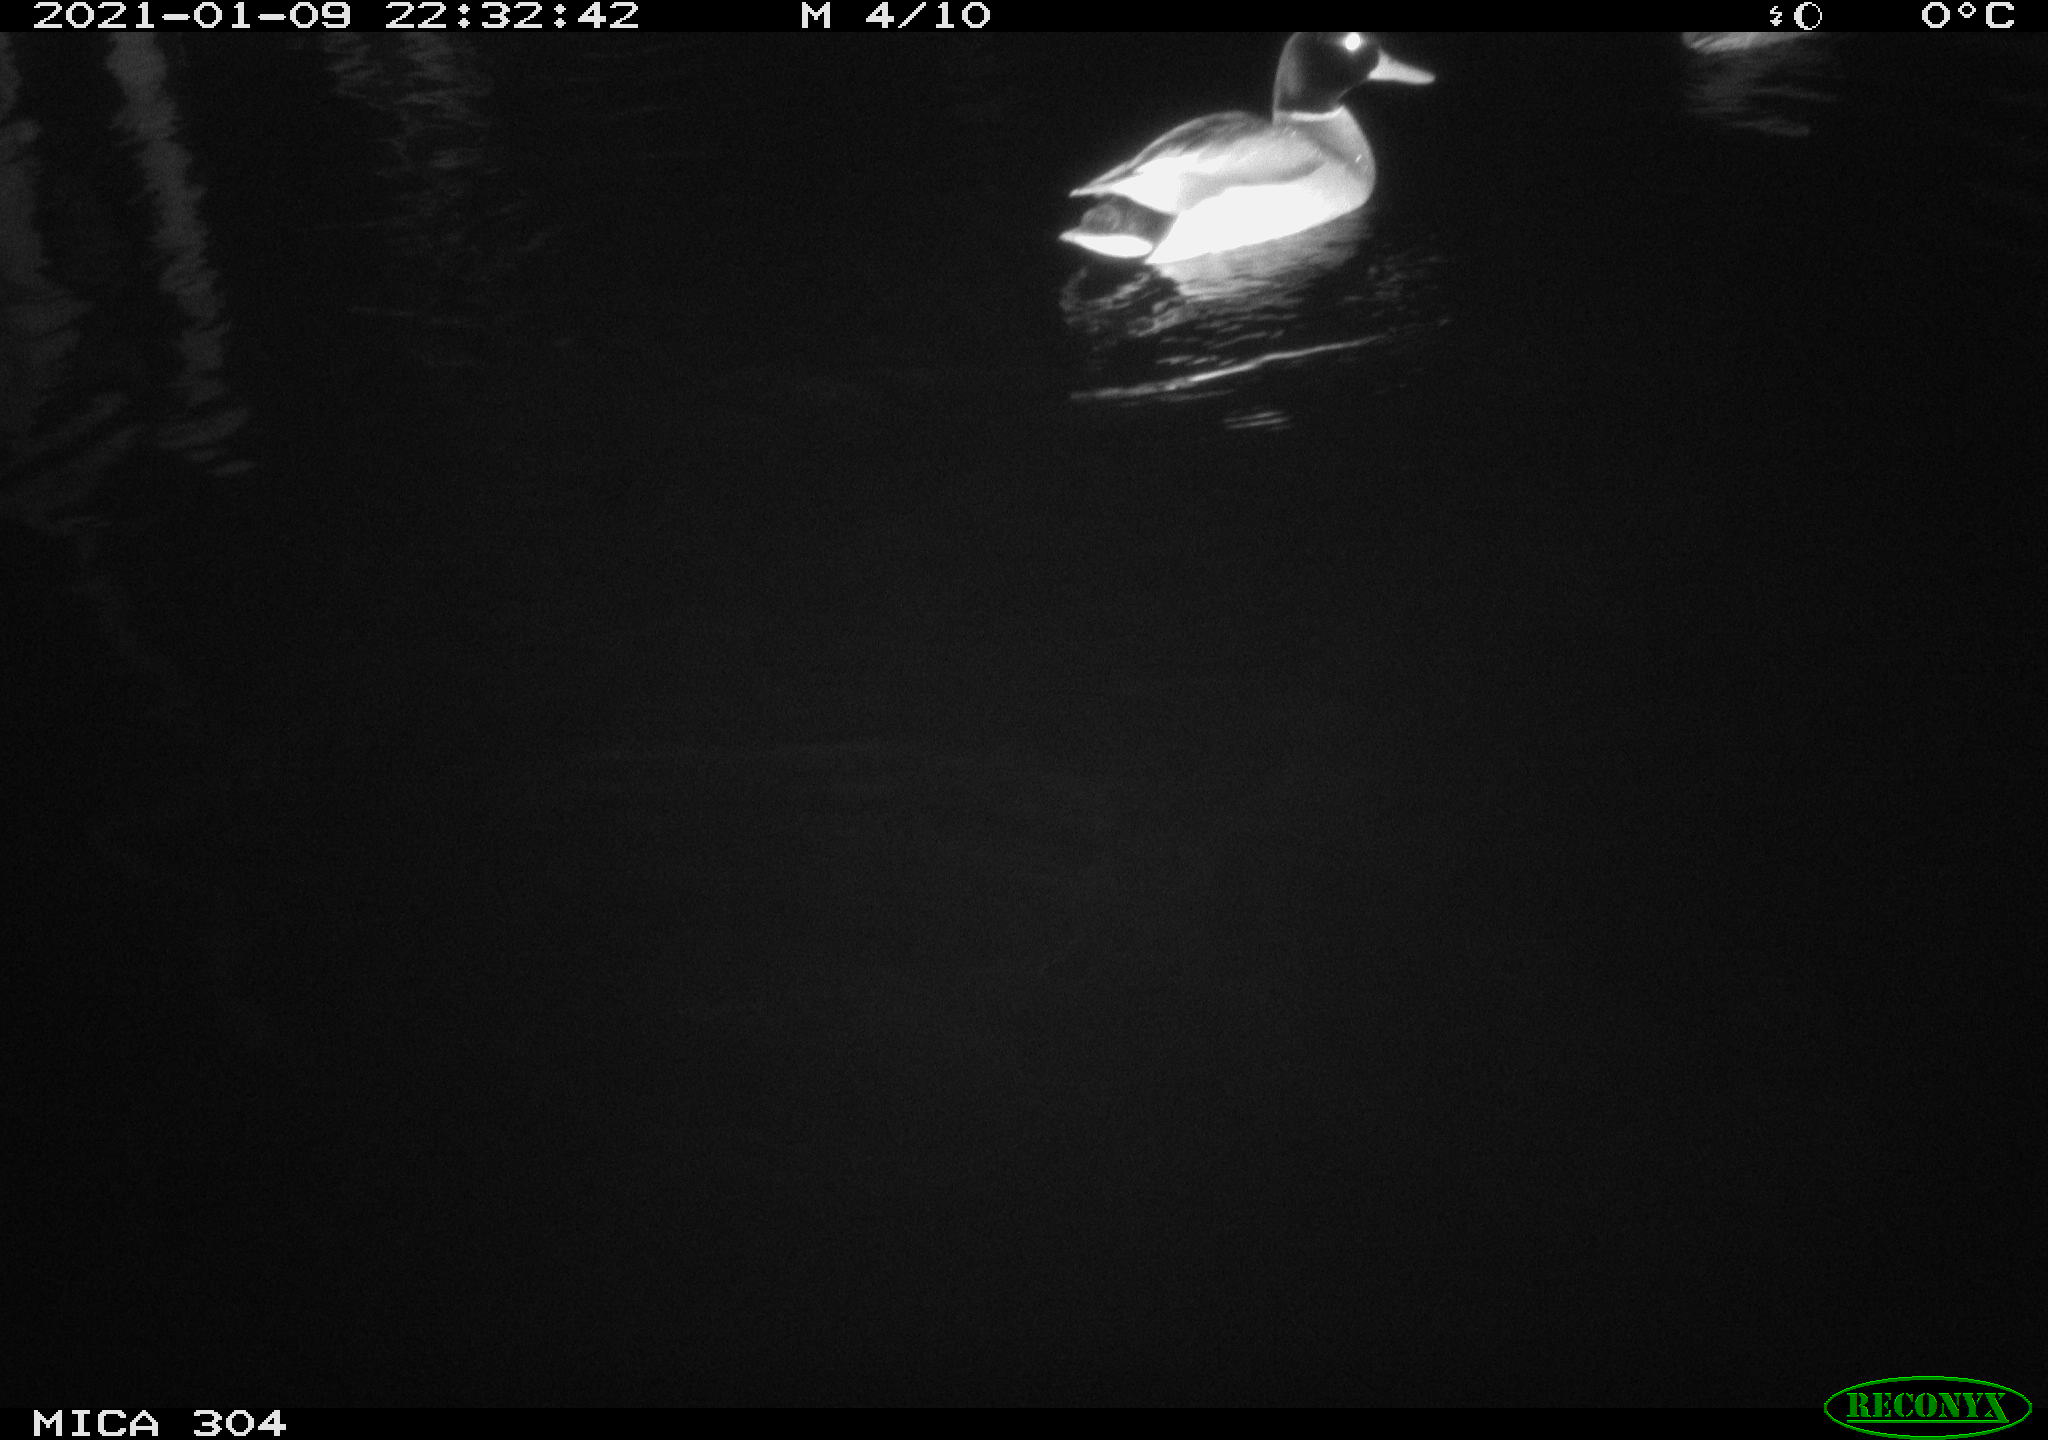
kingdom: Animalia
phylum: Chordata
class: Aves
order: Anseriformes
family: Anatidae
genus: Anas
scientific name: Anas platyrhynchos
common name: Mallard
